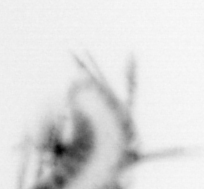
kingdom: Animalia
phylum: Annelida
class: Polychaeta
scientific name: Polychaeta
